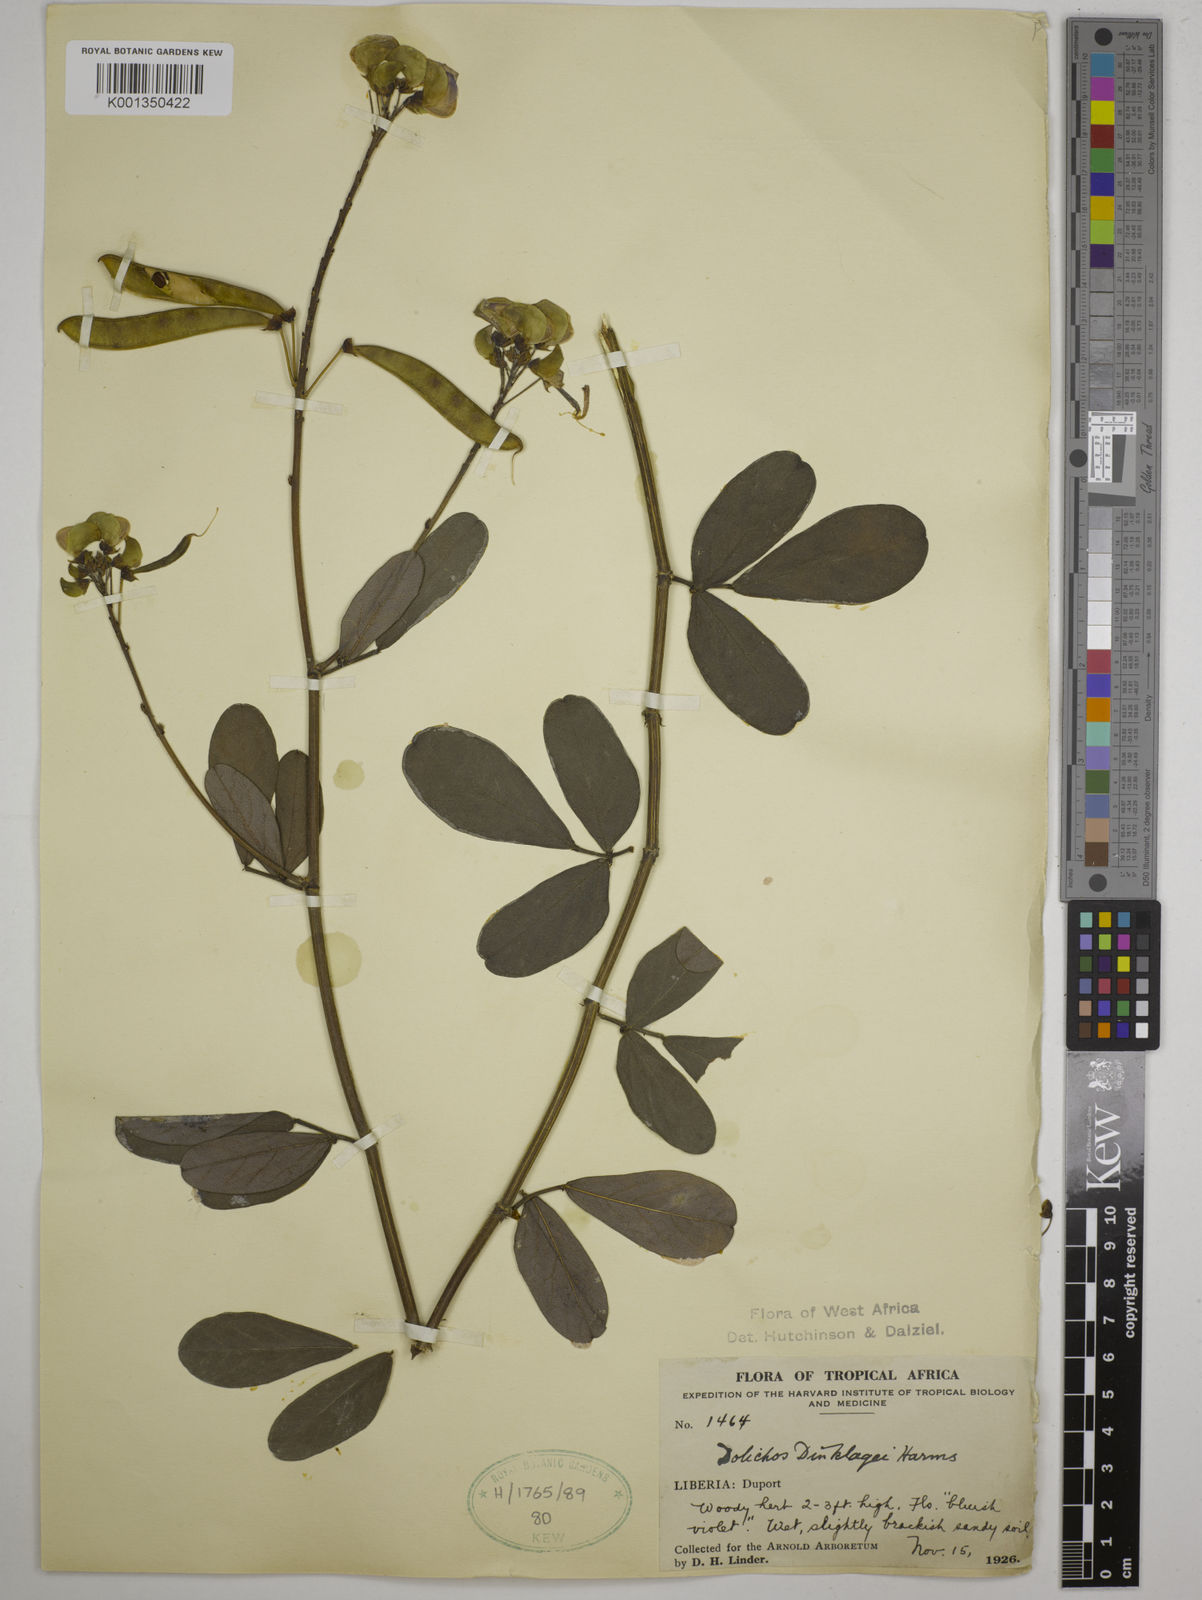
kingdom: Plantae
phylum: Tracheophyta
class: Magnoliopsida
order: Fabales
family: Fabaceae
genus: Dolichos
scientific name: Dolichos dinklagei
